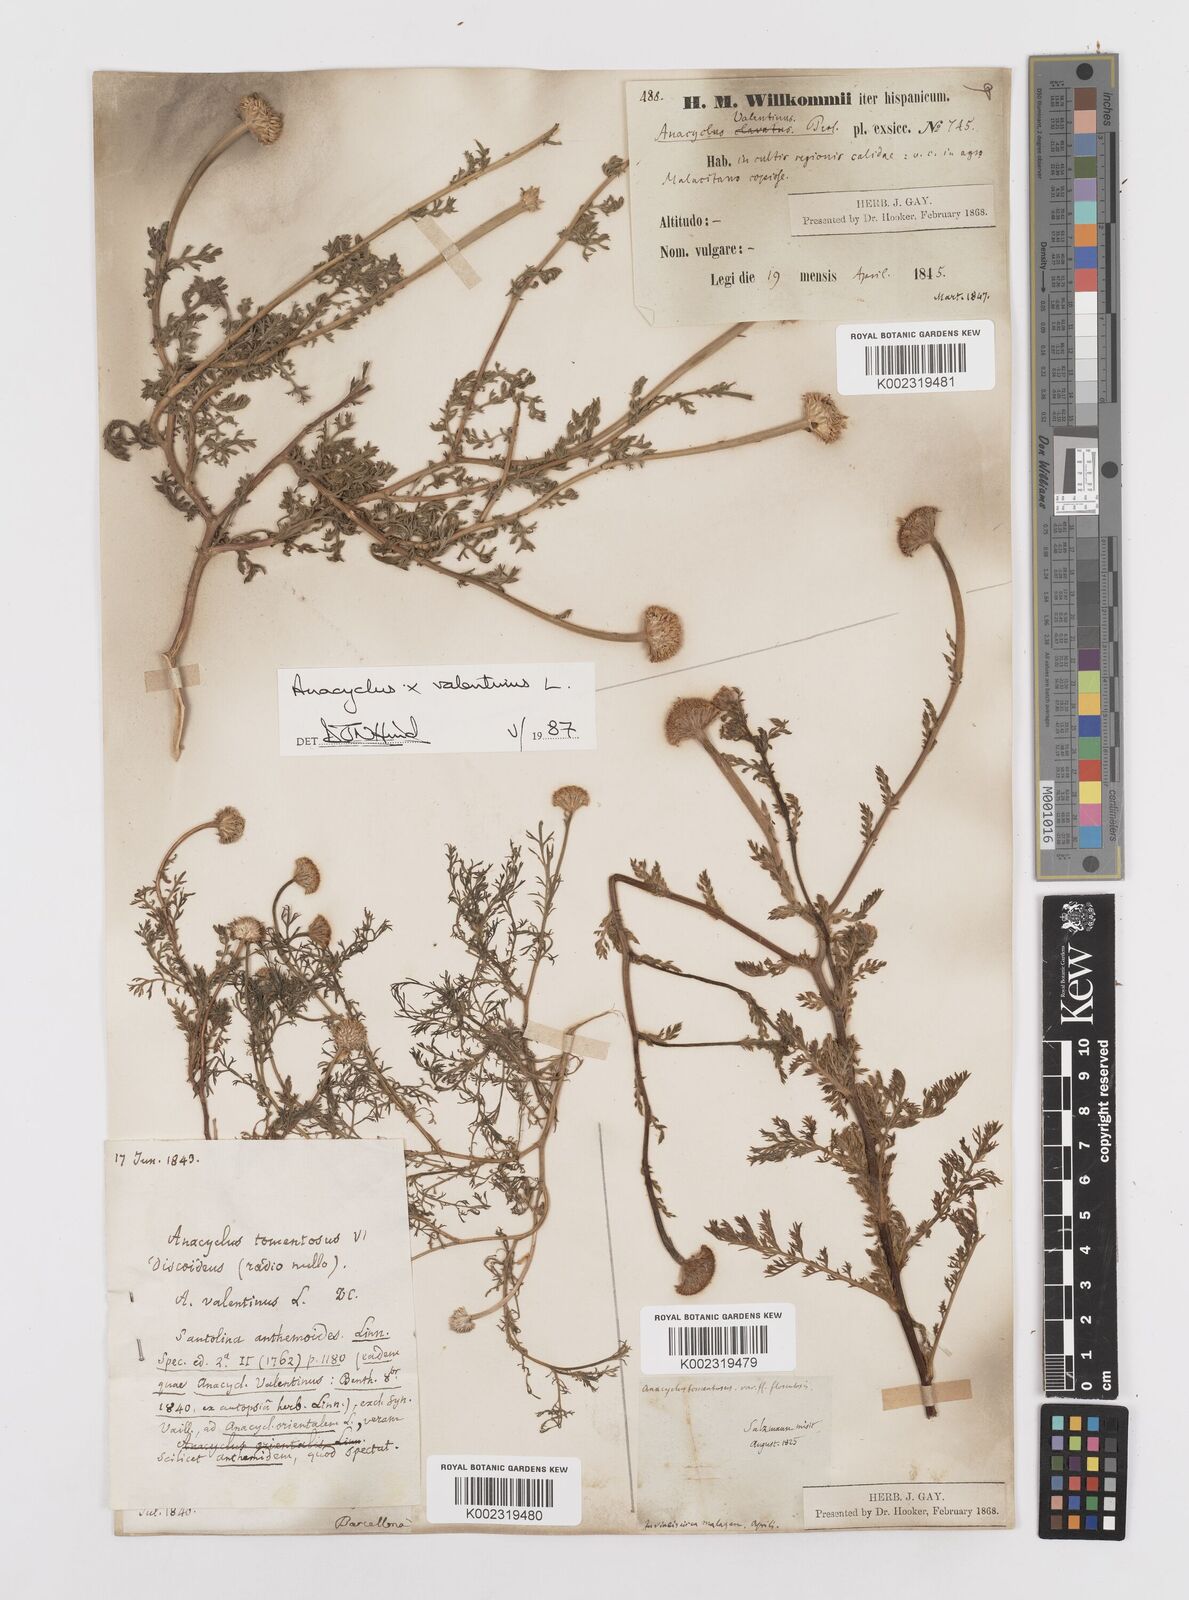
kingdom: Plantae
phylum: Tracheophyta
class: Magnoliopsida
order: Asterales
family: Asteraceae
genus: Anacyclus
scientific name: Anacyclus valentinus
